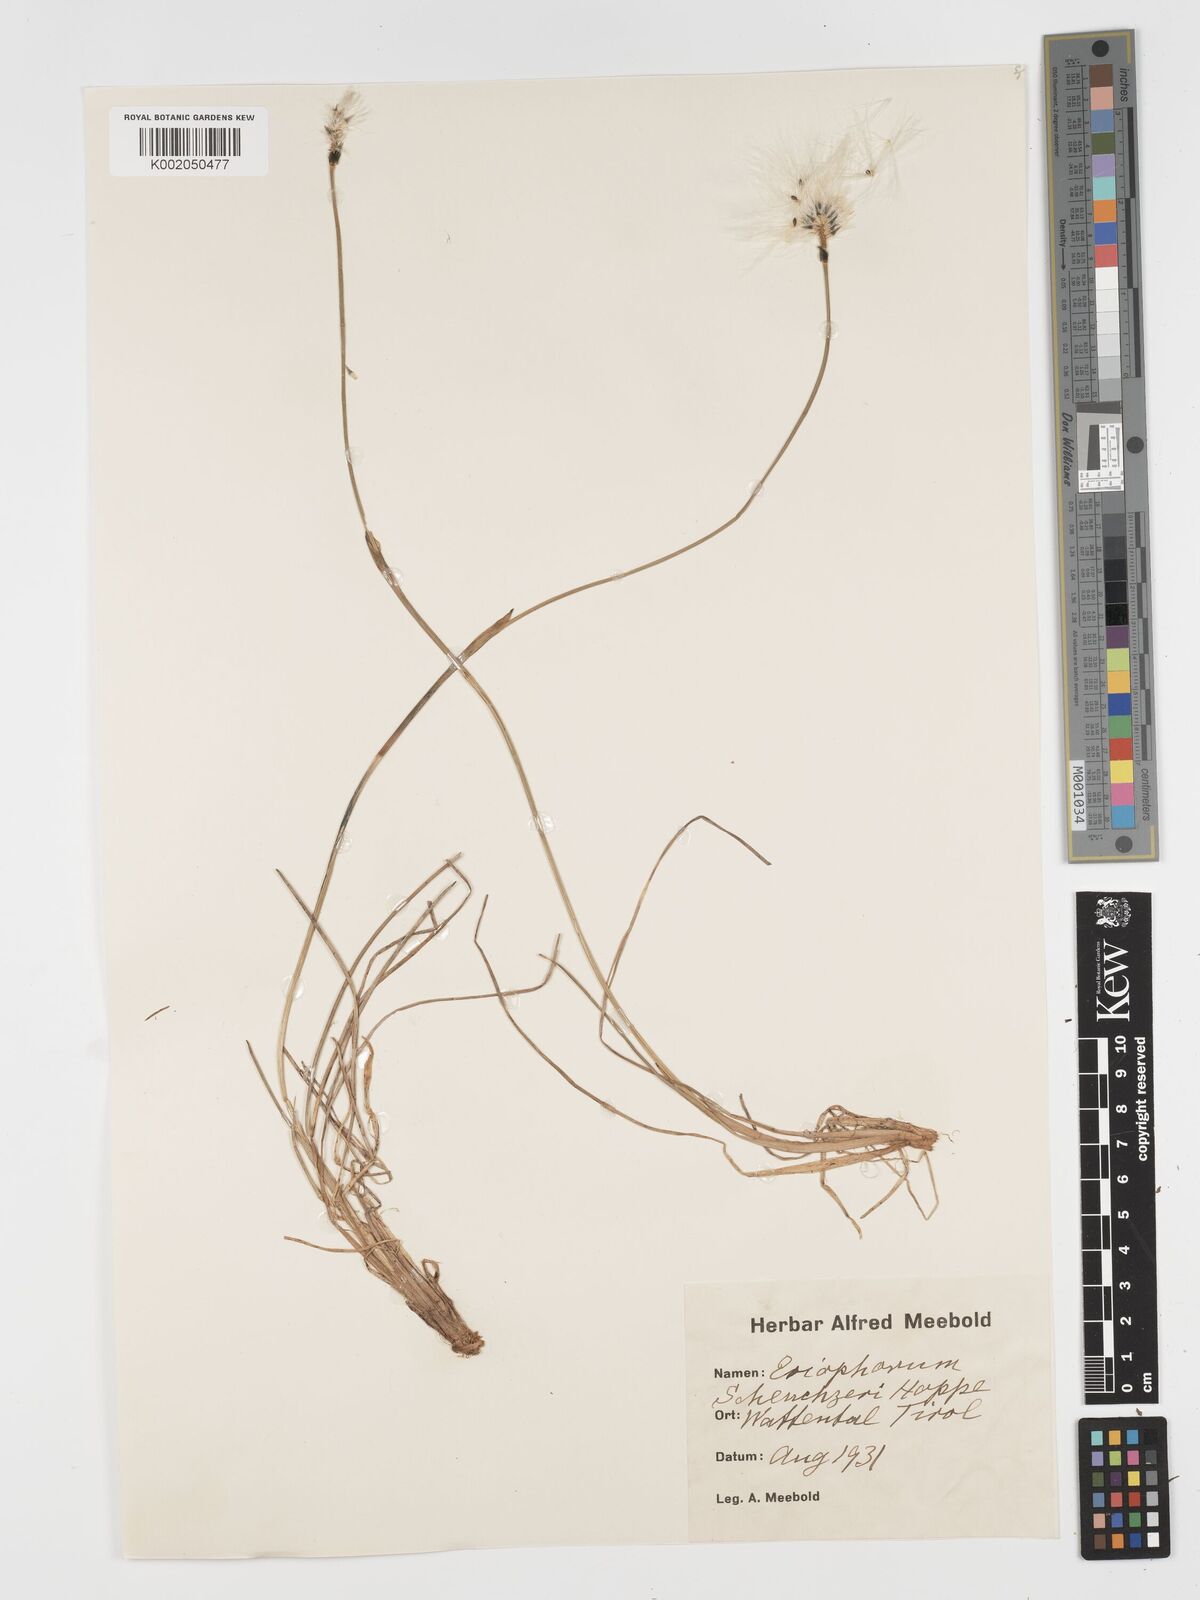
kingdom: Plantae
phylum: Tracheophyta
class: Liliopsida
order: Poales
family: Cyperaceae
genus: Eriophorum
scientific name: Eriophorum scheuchzeri
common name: Scheuchzer's cottongrass
